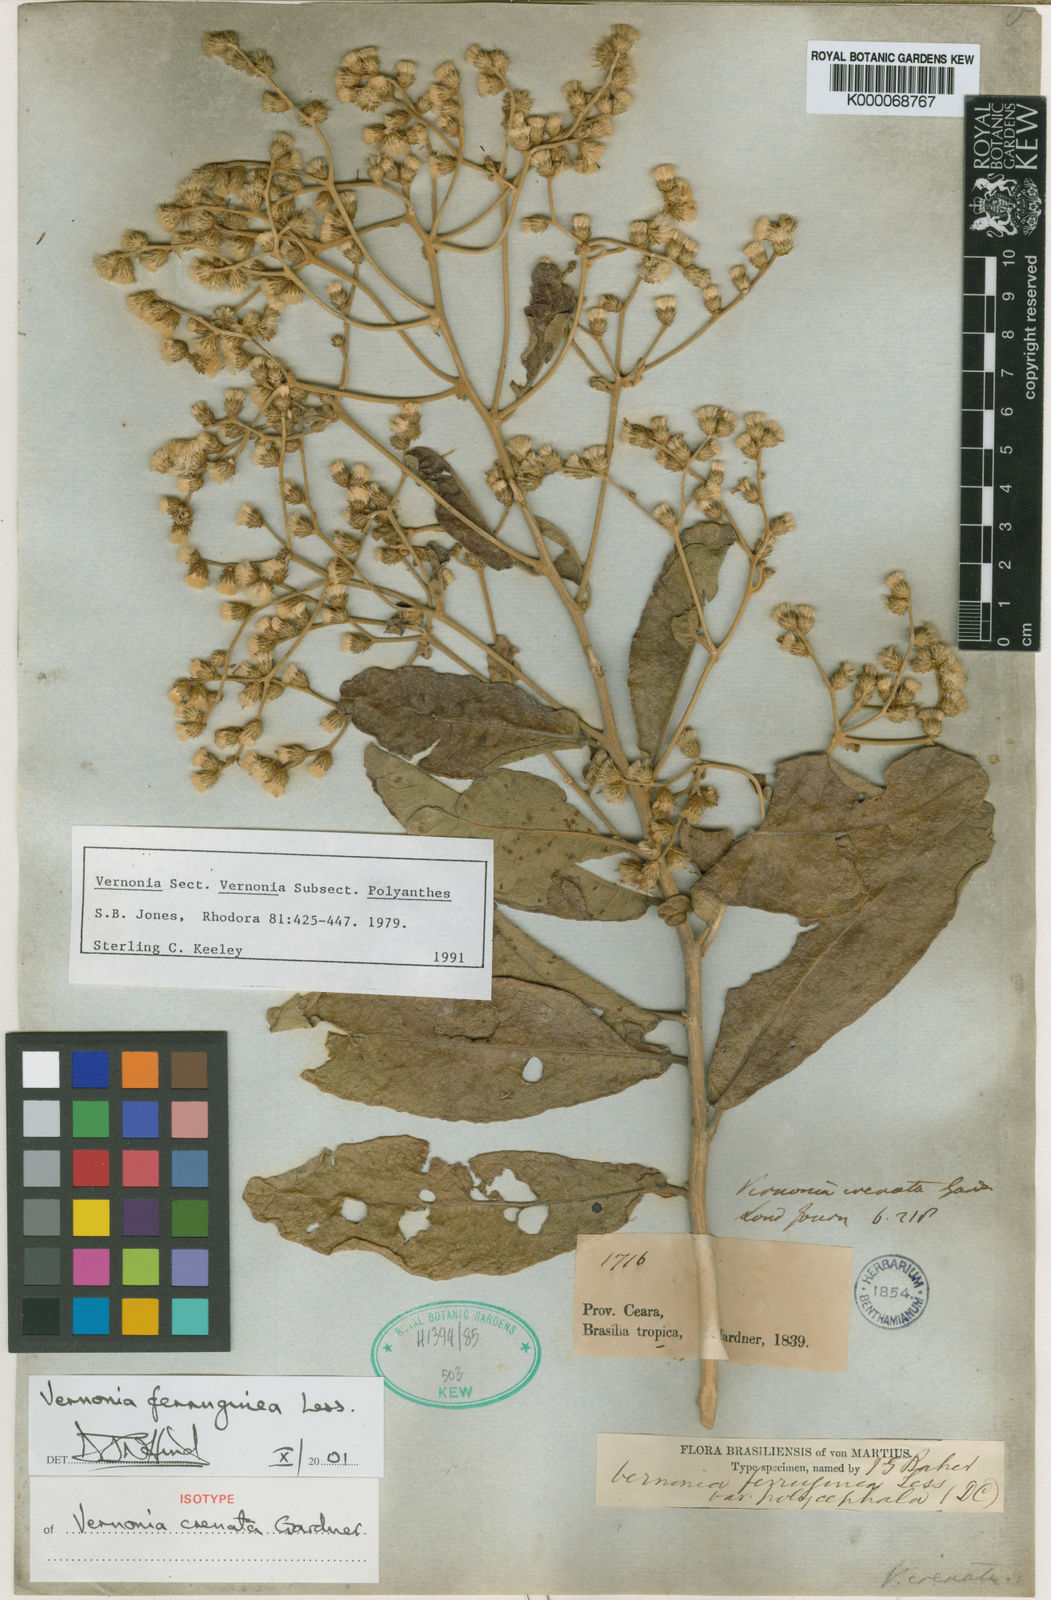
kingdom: Plantae
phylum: Tracheophyta
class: Magnoliopsida
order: Asterales
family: Asteraceae
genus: Vernonanthura
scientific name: Vernonanthura ferruginea
